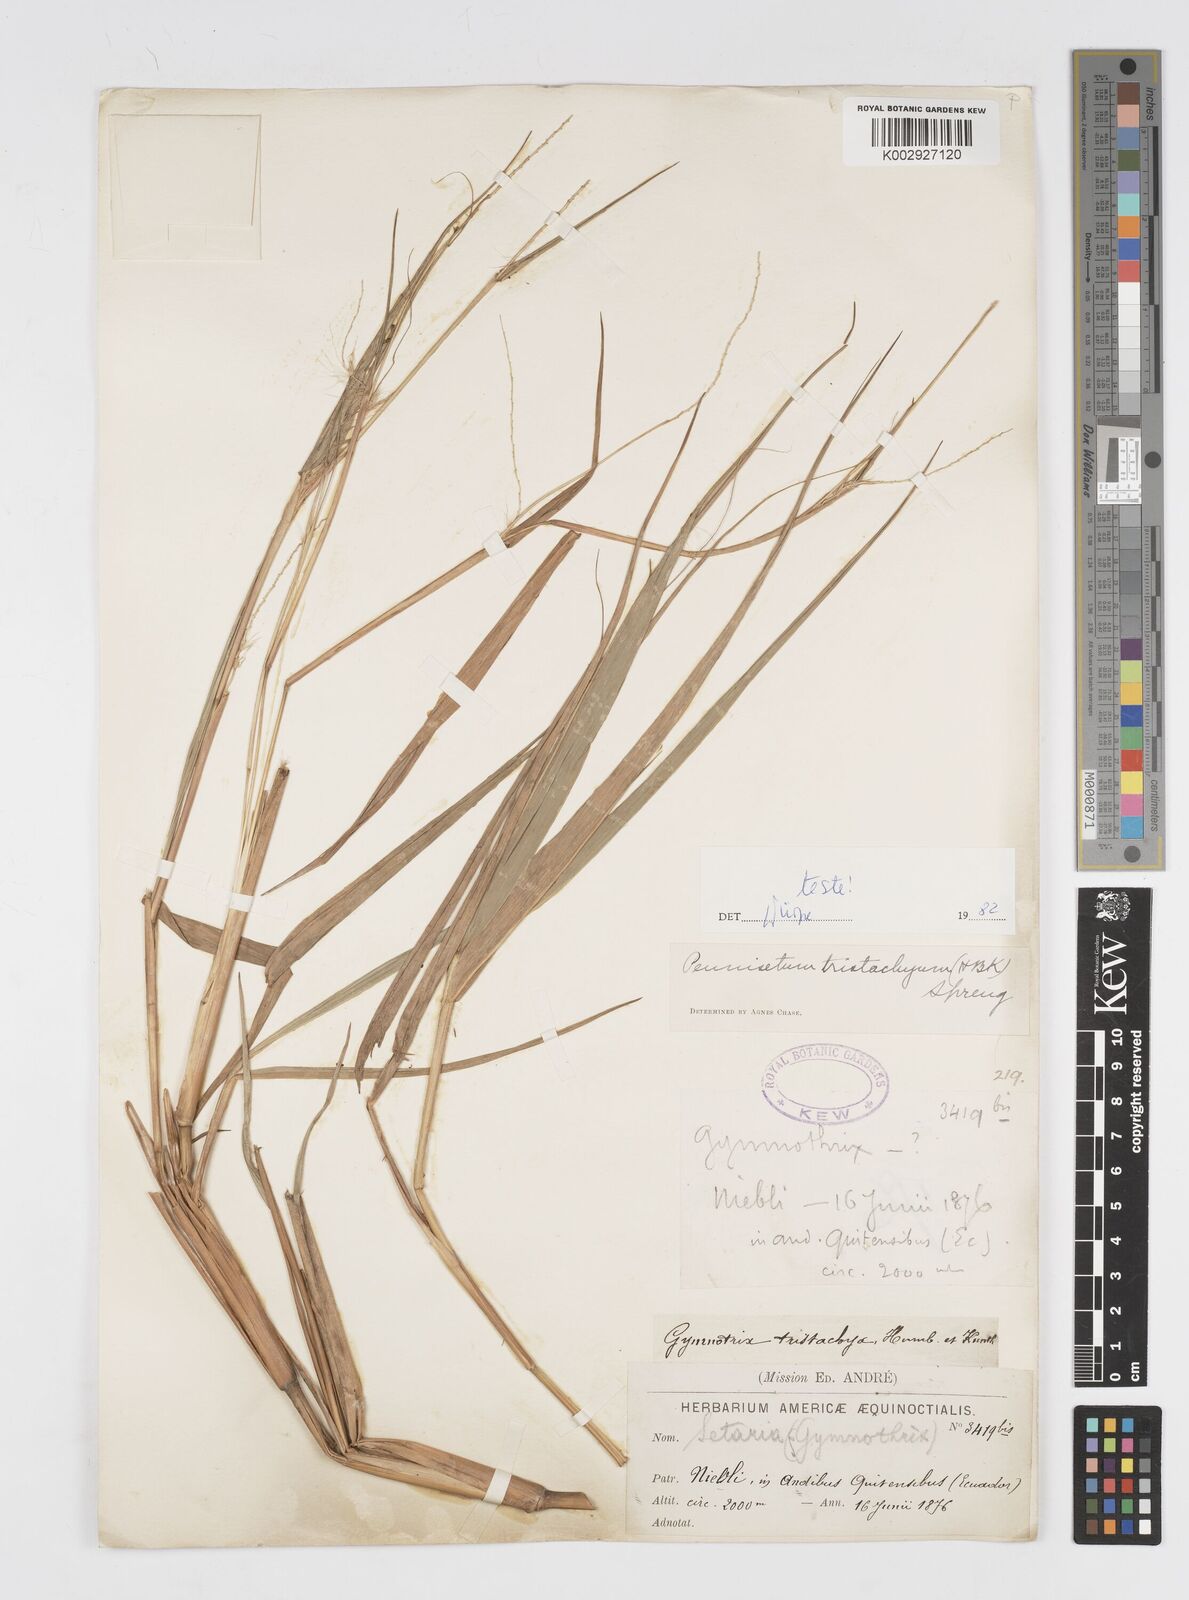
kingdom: Plantae
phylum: Tracheophyta
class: Liliopsida
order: Poales
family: Poaceae
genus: Cenchrus
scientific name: Cenchrus tristachyus
